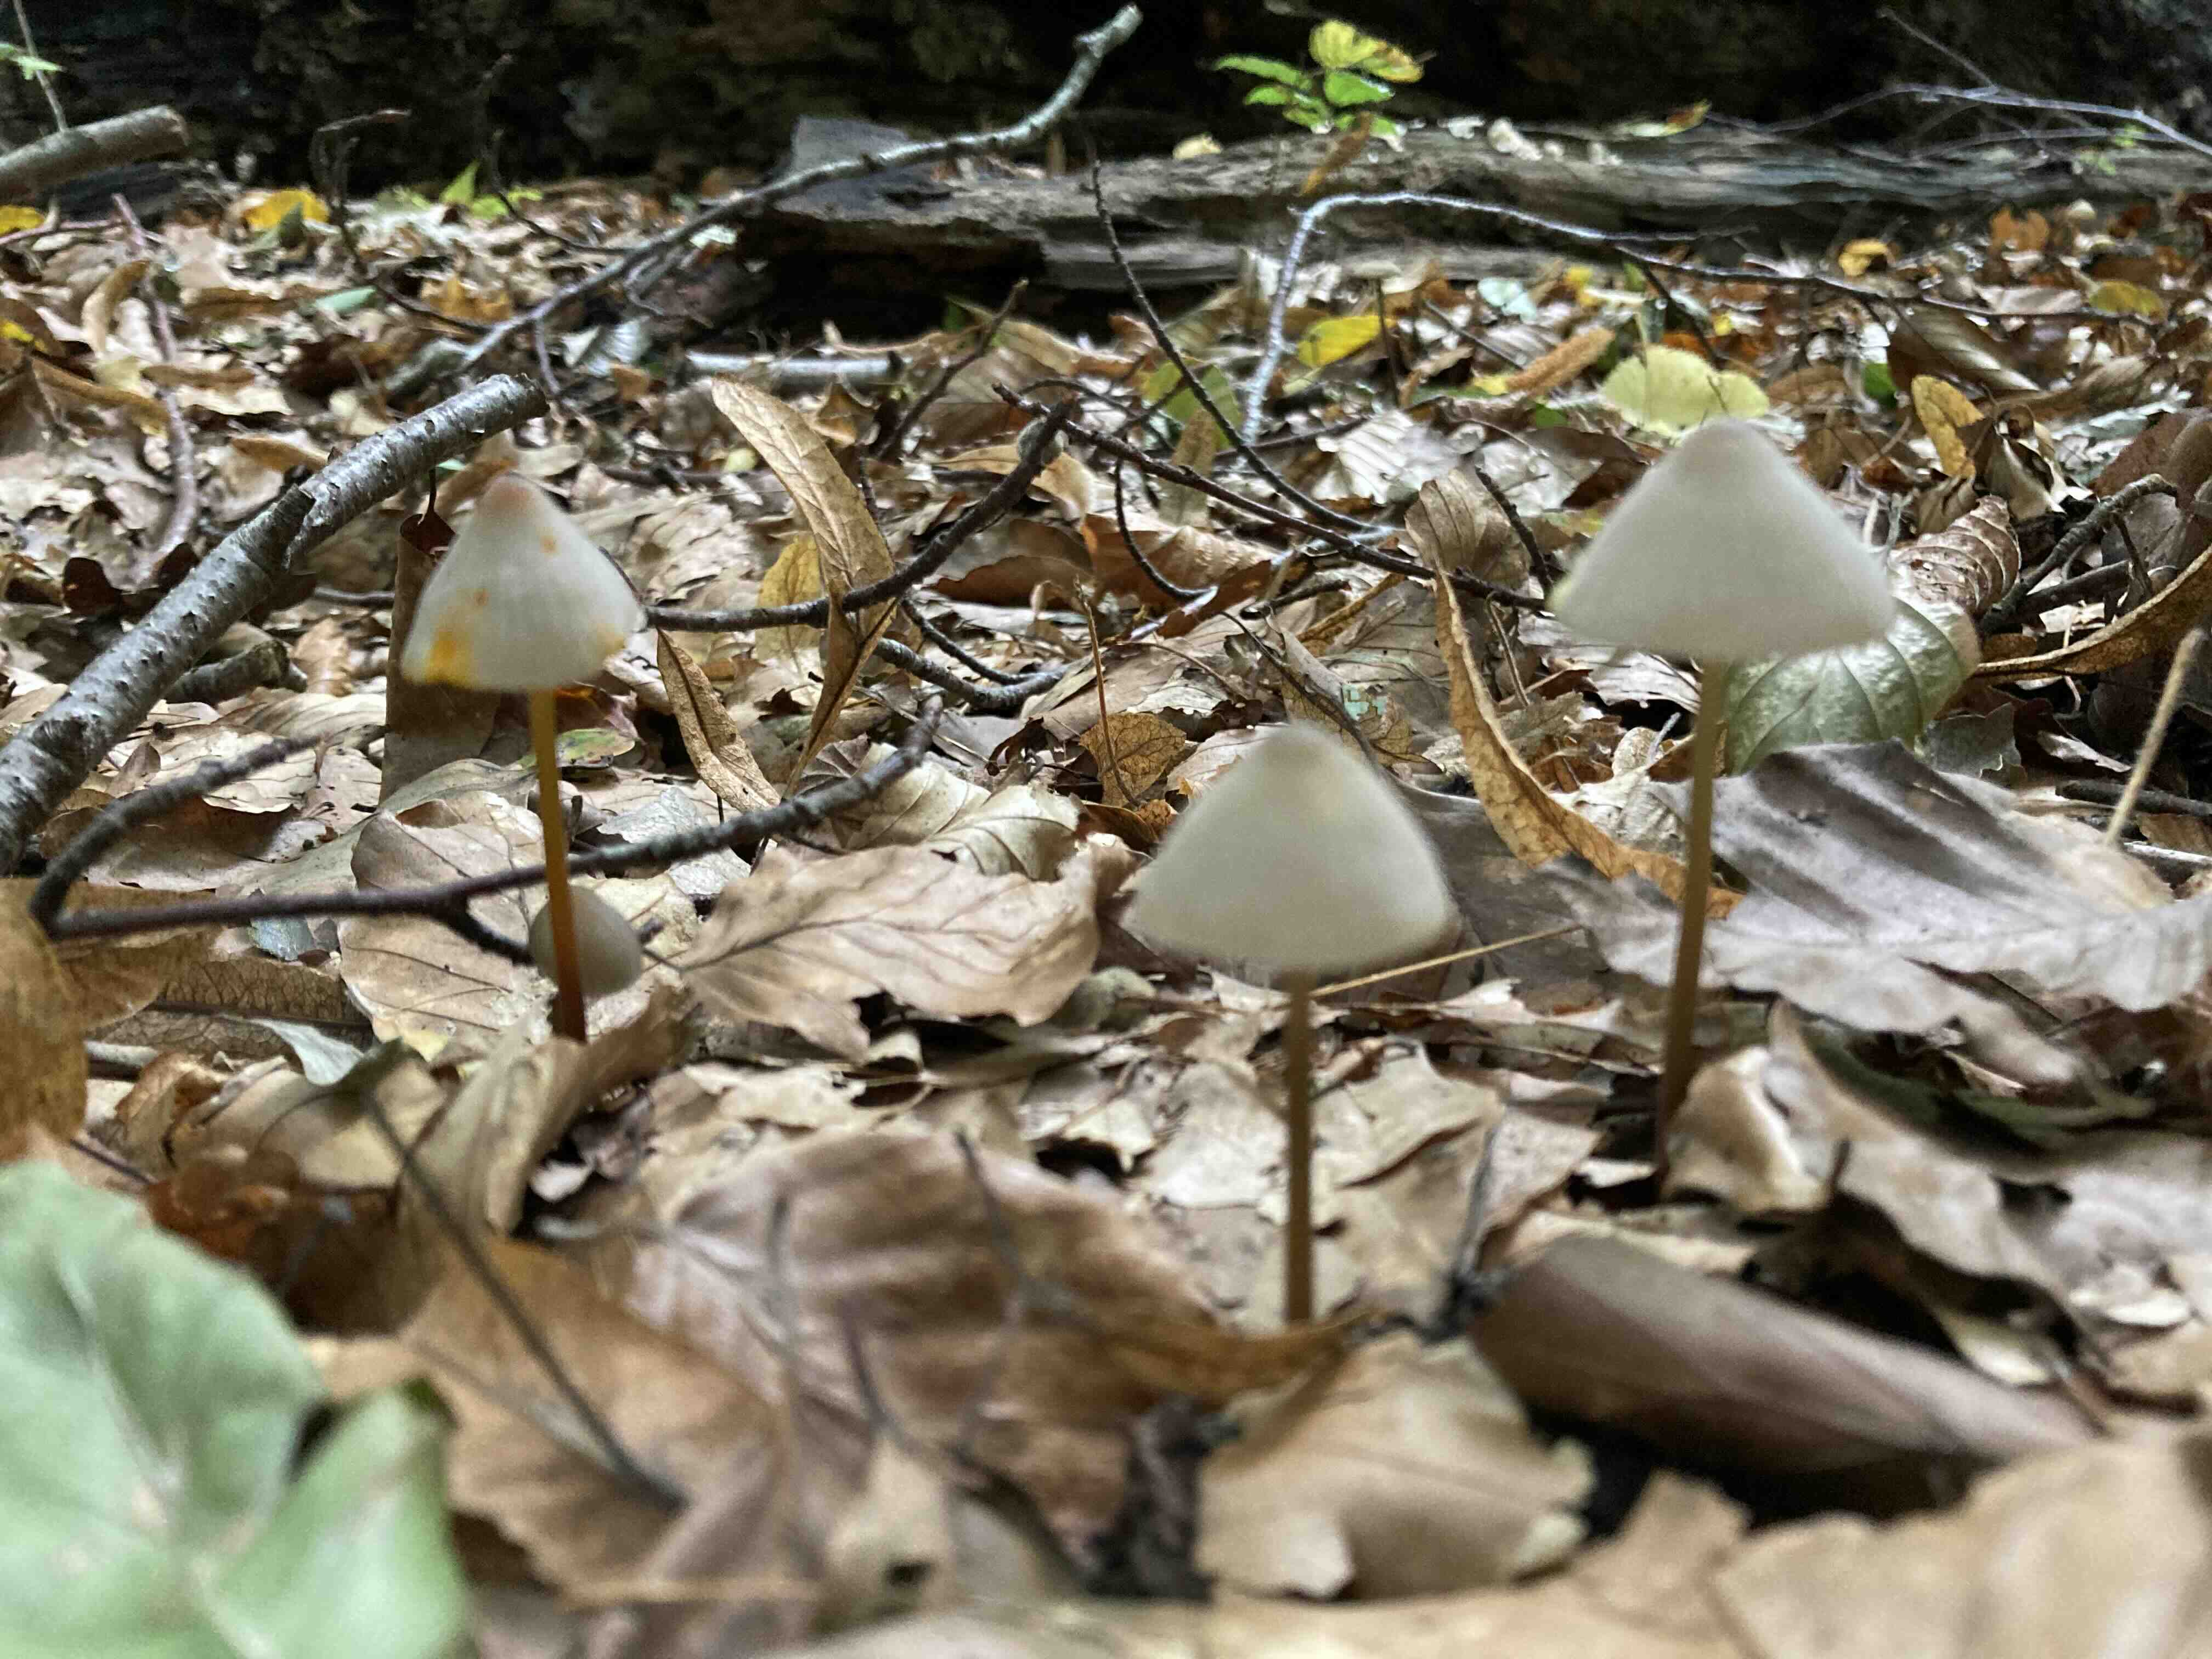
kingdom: Fungi
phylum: Basidiomycota
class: Agaricomycetes
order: Agaricales
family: Mycenaceae
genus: Mycena
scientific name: Mycena crocata
